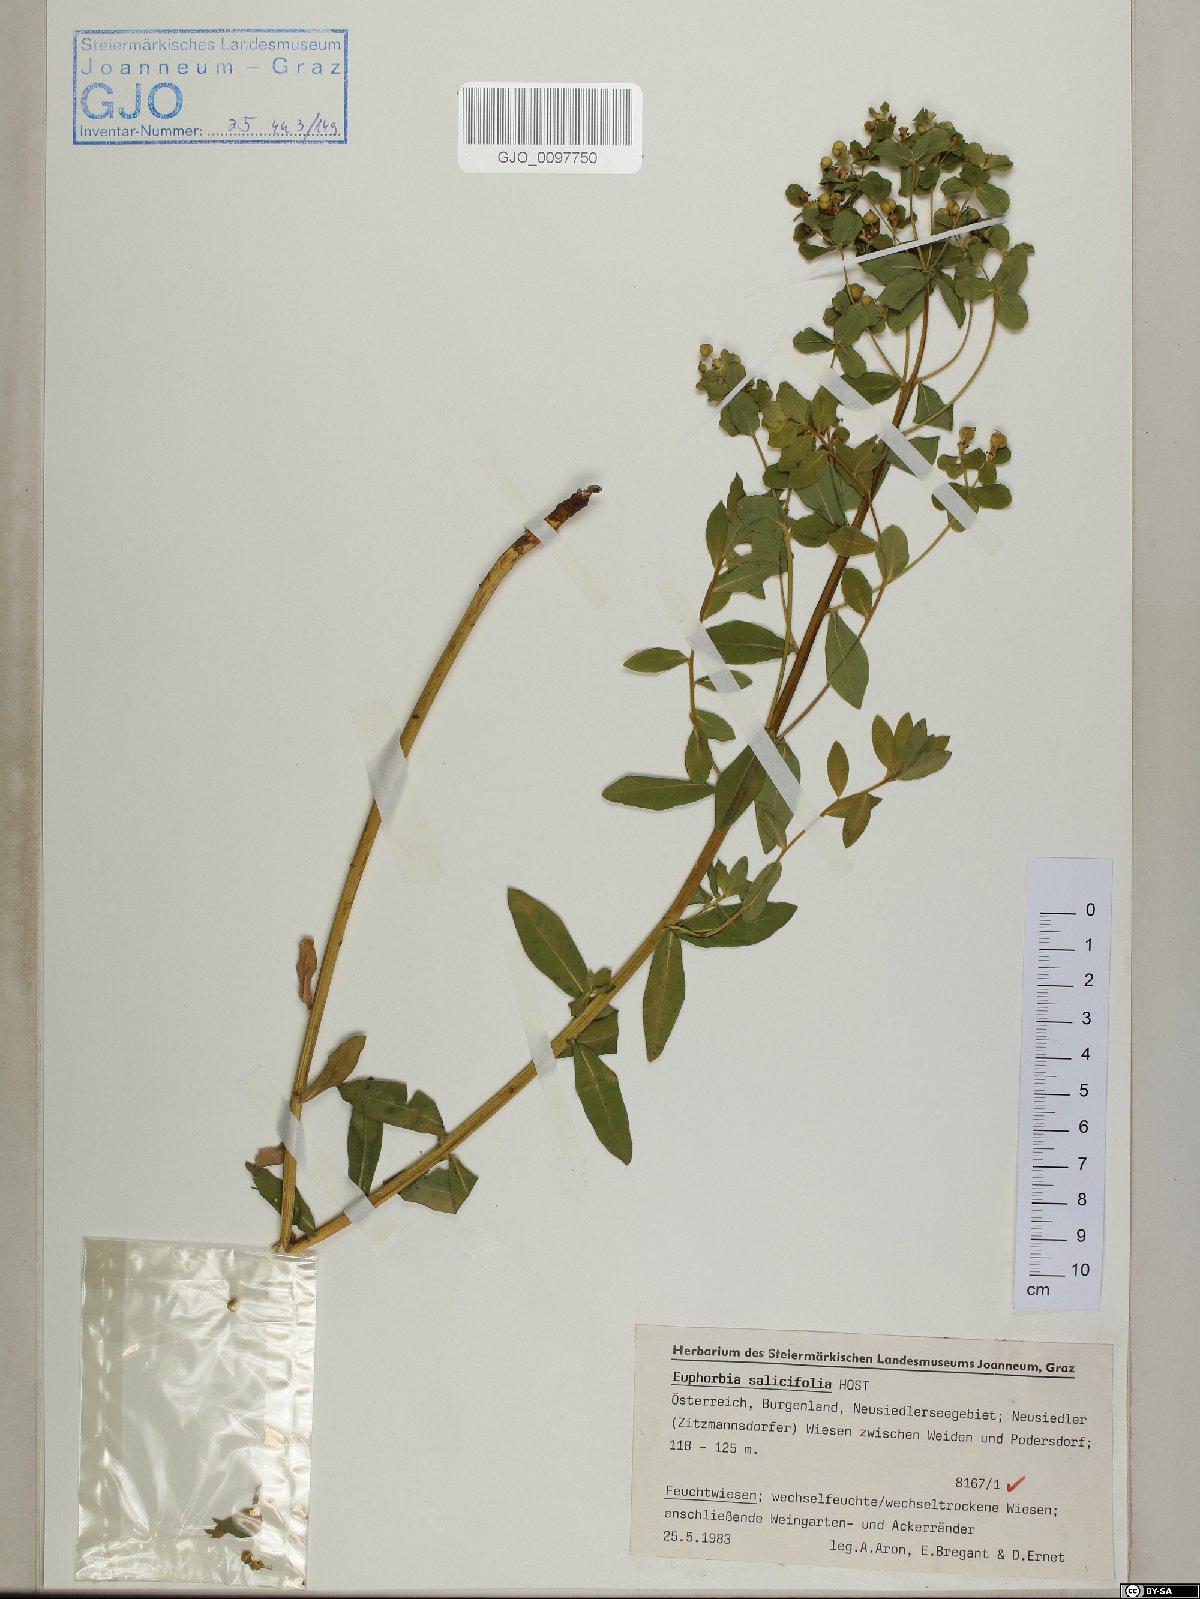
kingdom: Plantae
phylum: Tracheophyta
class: Magnoliopsida
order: Malpighiales
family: Euphorbiaceae
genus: Euphorbia
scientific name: Euphorbia salicifolia
